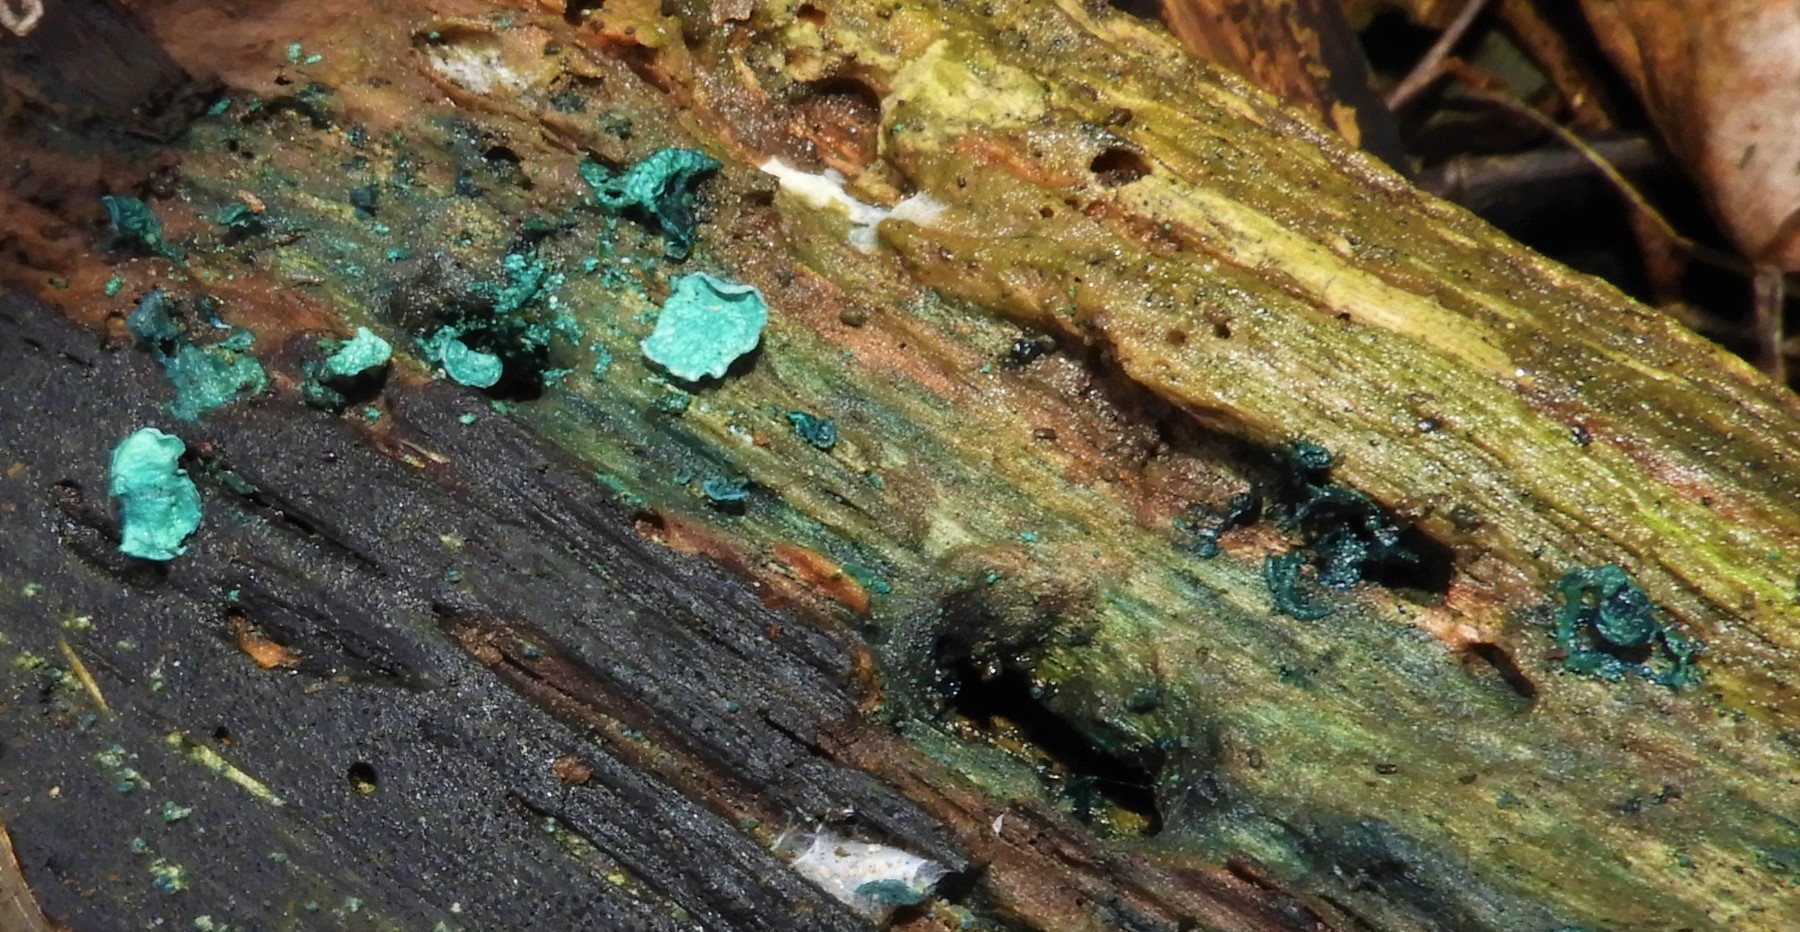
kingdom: Fungi
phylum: Ascomycota
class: Leotiomycetes
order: Helotiales
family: Chlorociboriaceae
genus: Chlorociboria
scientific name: Chlorociboria aeruginascens
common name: almindelig grønskive
